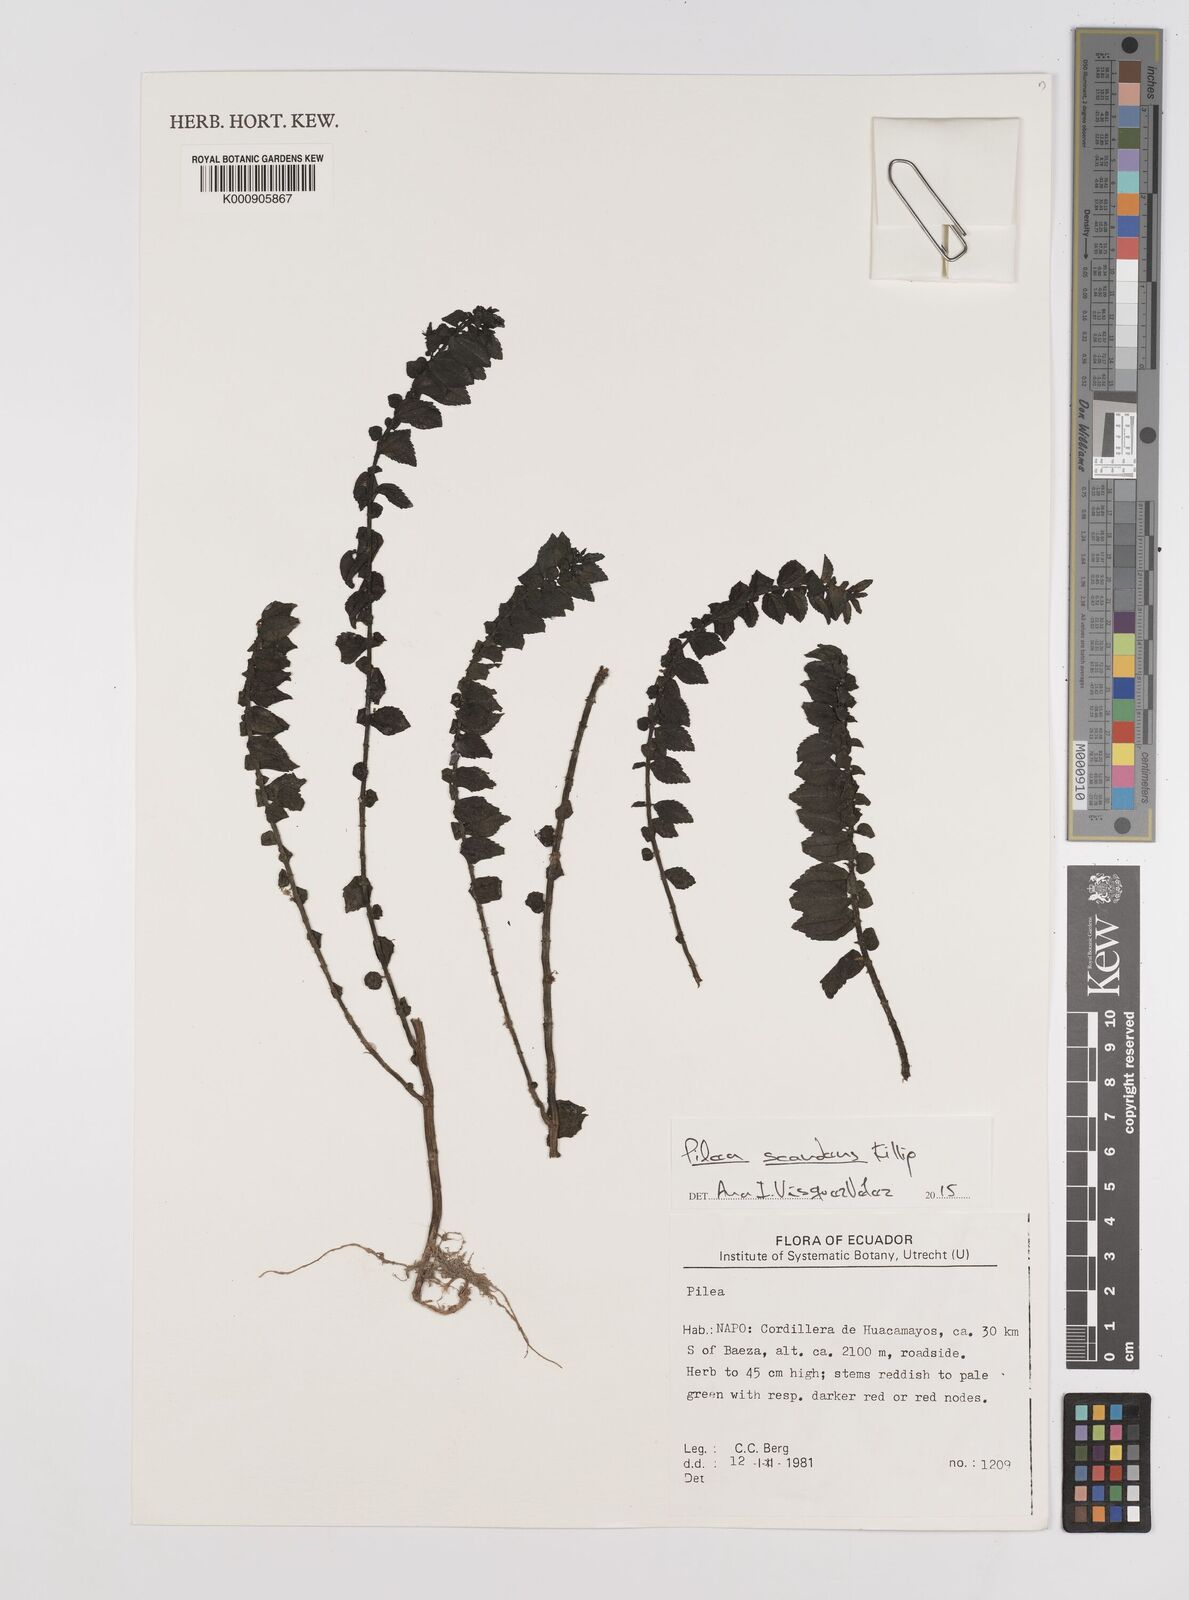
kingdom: Plantae
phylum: Tracheophyta
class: Magnoliopsida
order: Rosales
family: Urticaceae
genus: Pilea
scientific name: Pilea scandens
